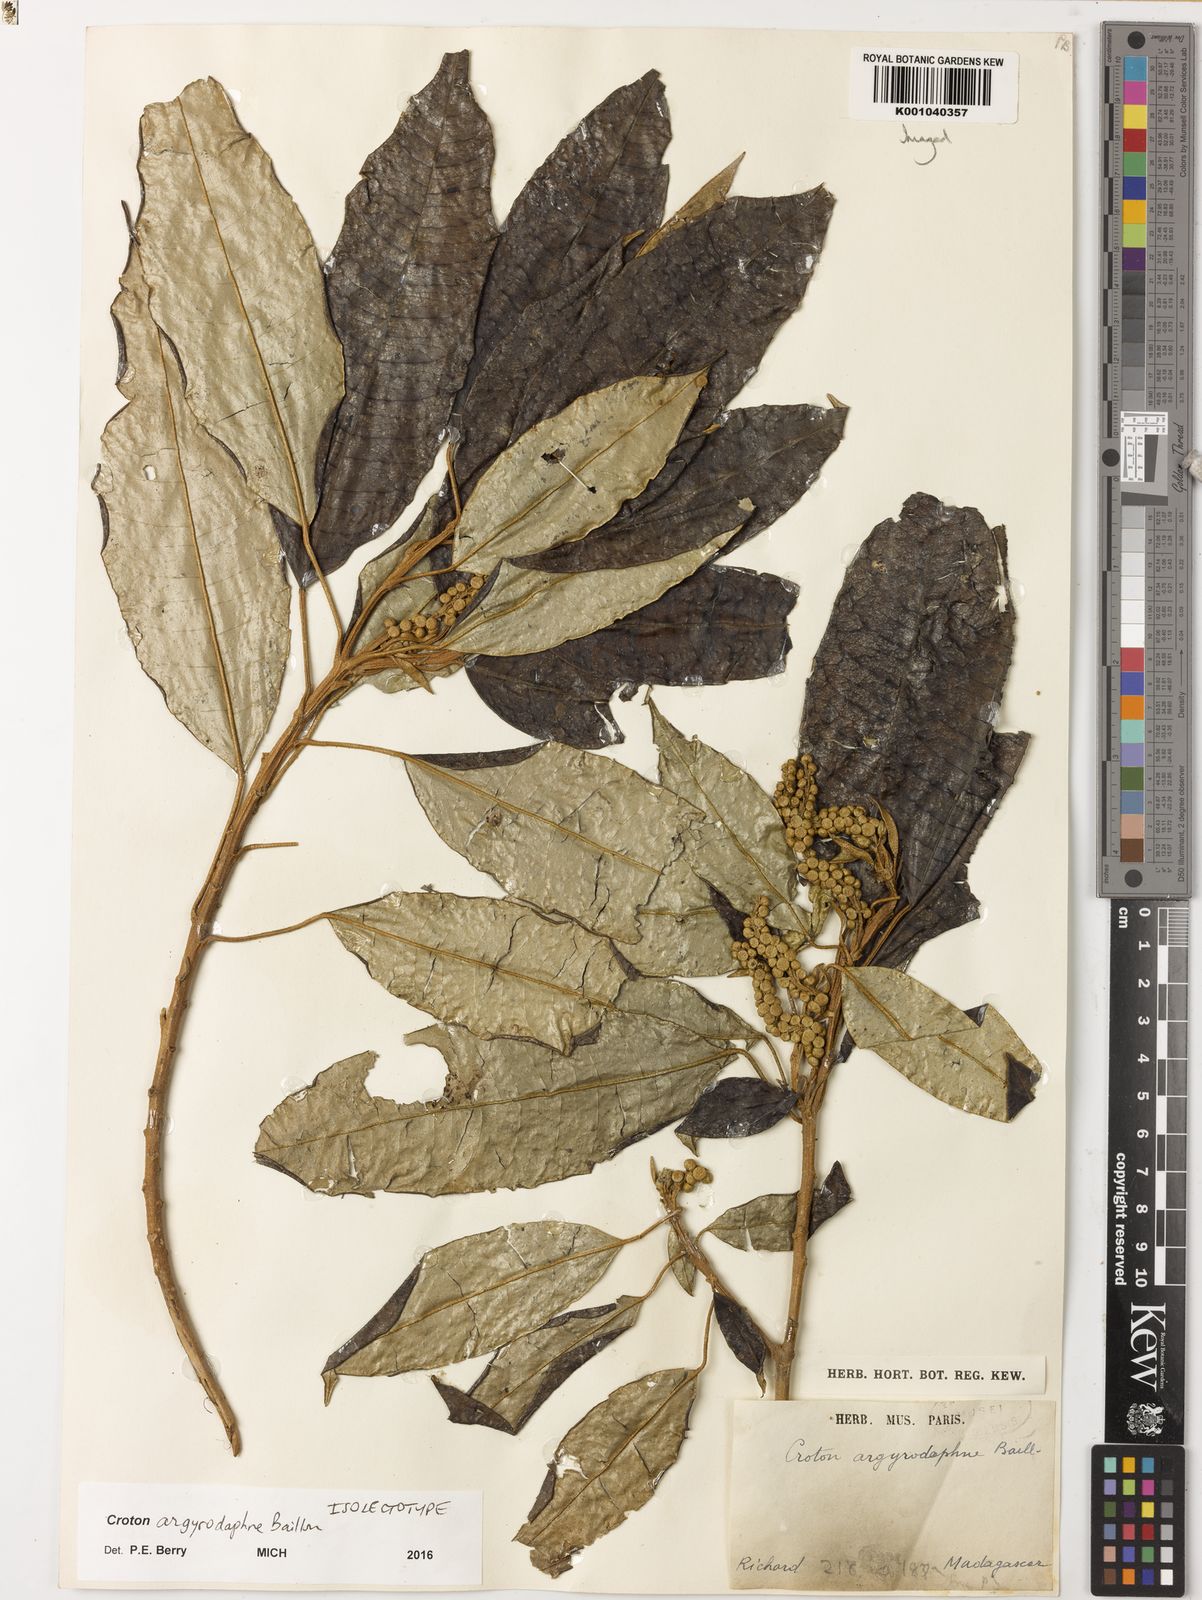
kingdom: Plantae
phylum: Tracheophyta
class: Magnoliopsida
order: Malpighiales
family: Euphorbiaceae
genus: Croton
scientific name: Croton argyrodaphne
